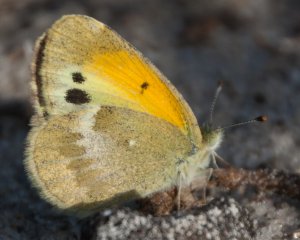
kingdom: Animalia
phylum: Arthropoda
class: Insecta
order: Lepidoptera
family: Pieridae
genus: Nathalis
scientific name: Nathalis iole
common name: Dainty Sulphur
